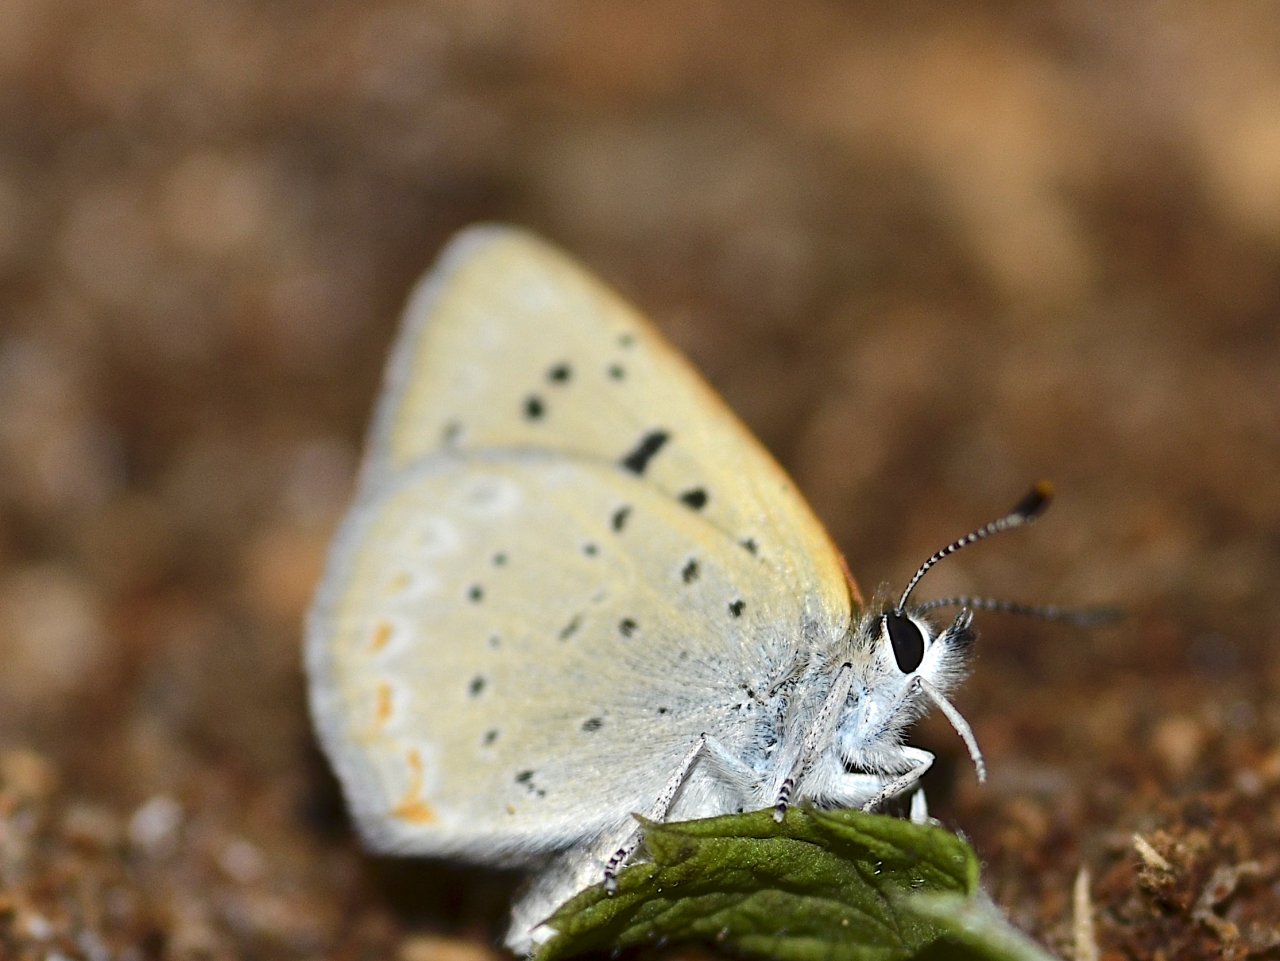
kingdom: Animalia
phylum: Arthropoda
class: Insecta
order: Lepidoptera
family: Sesiidae
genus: Sesia
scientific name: Sesia Lycaena epixanthe
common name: Bog Copper
